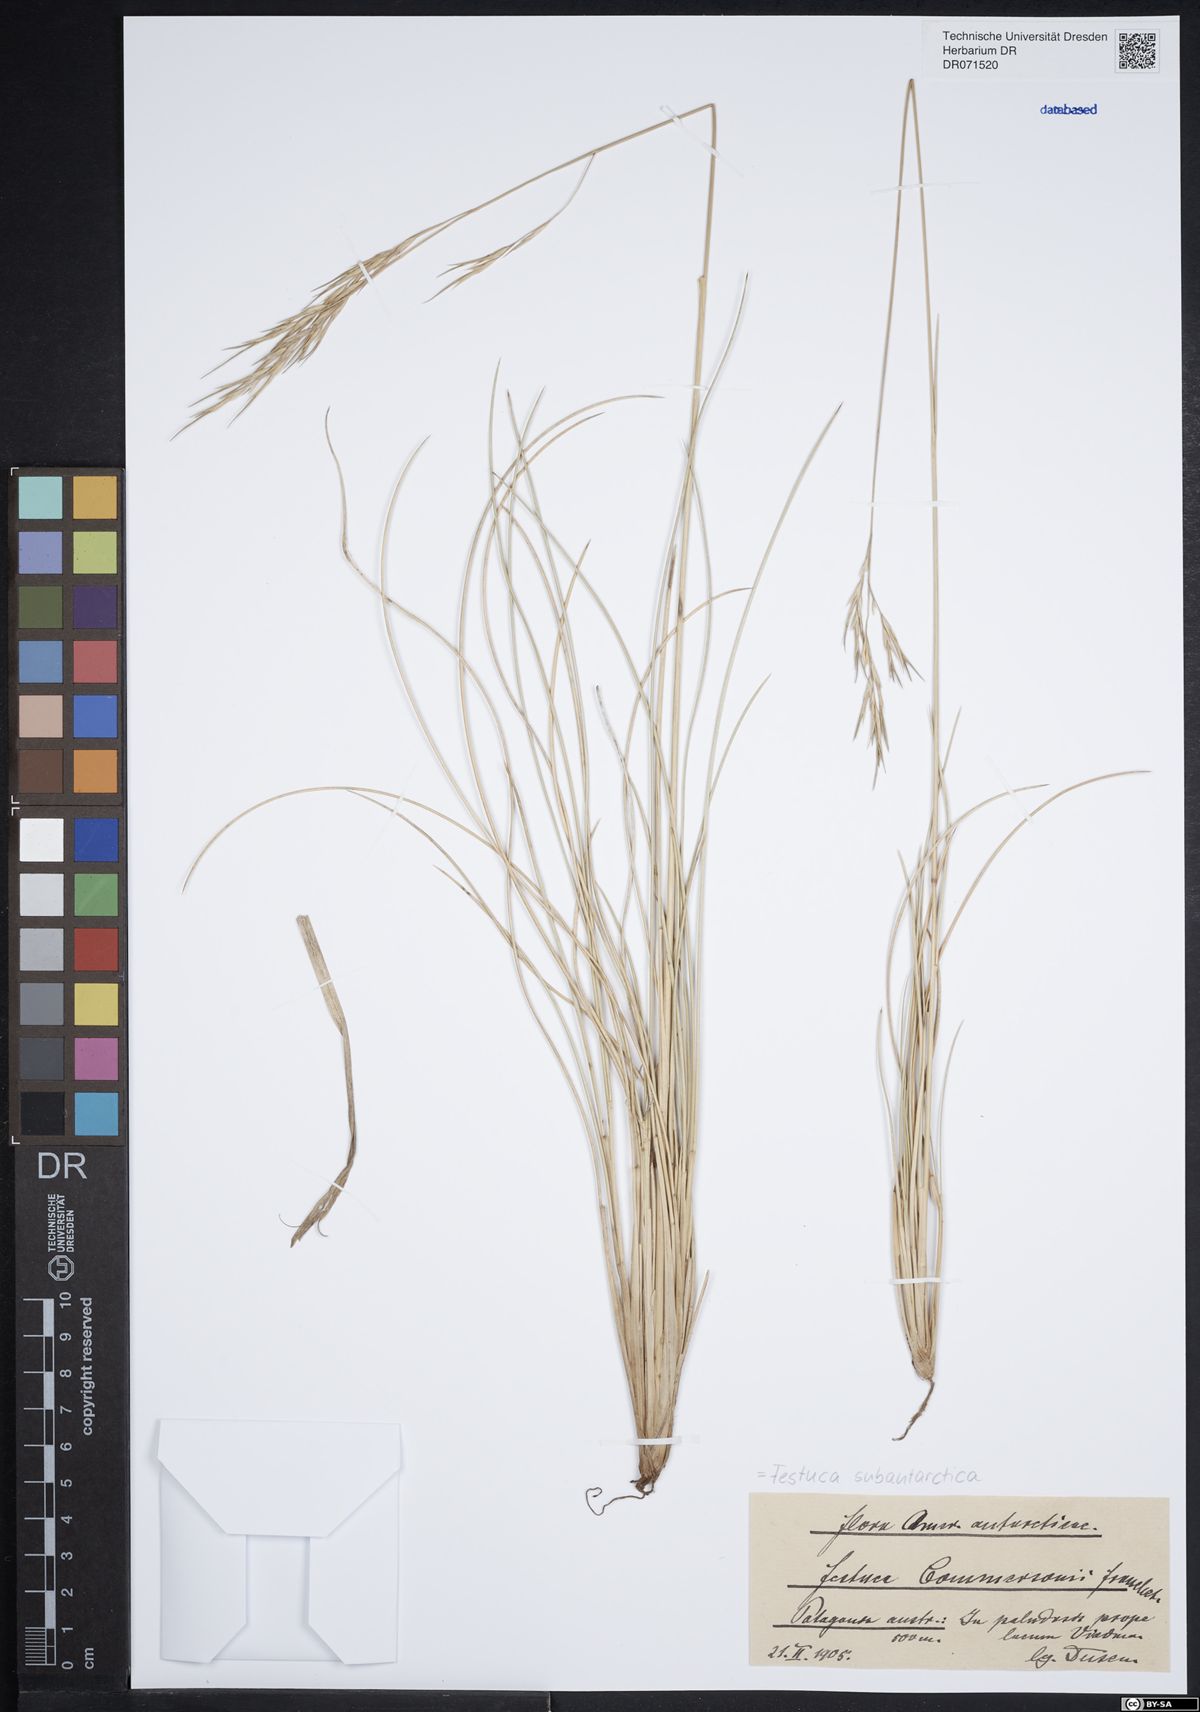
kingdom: Plantae
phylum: Tracheophyta
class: Liliopsida
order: Poales
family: Poaceae
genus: Festuca
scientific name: Festuca subantarctica
